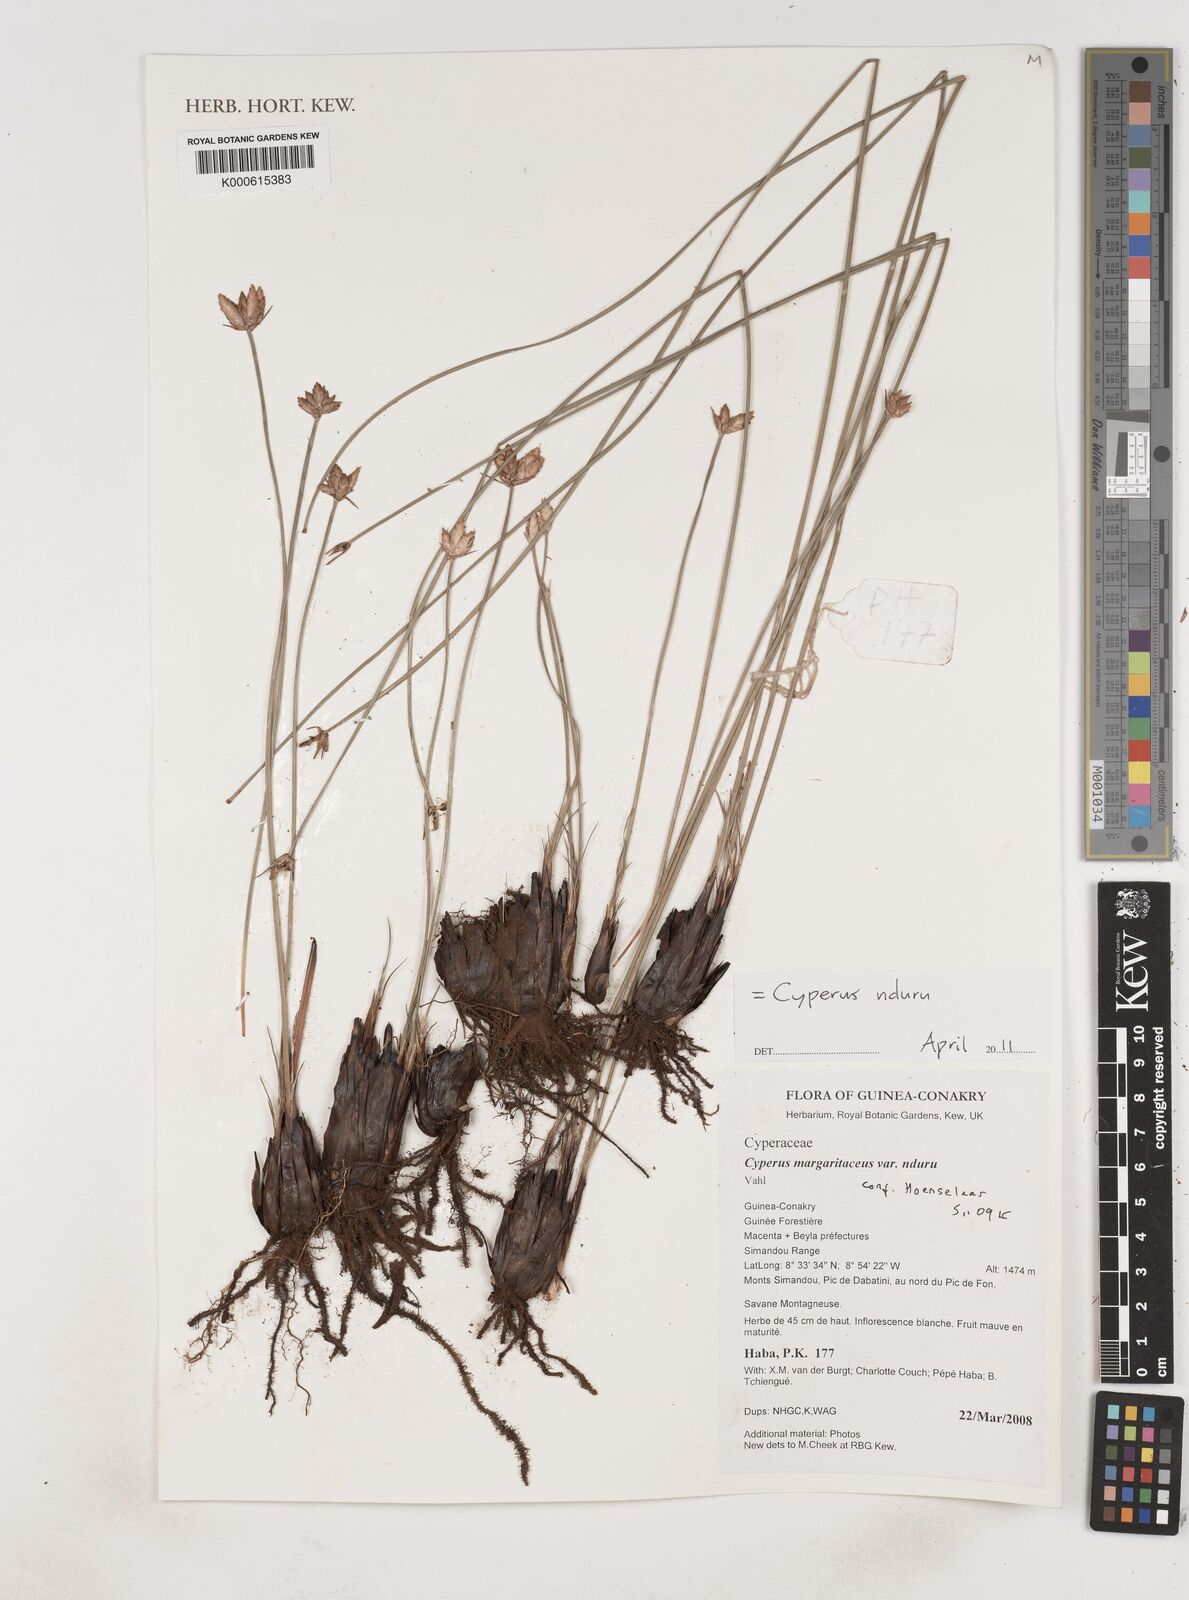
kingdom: Plantae
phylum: Tracheophyta
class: Liliopsida
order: Poales
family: Cyperaceae
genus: Cyperus
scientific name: Cyperus nduru
